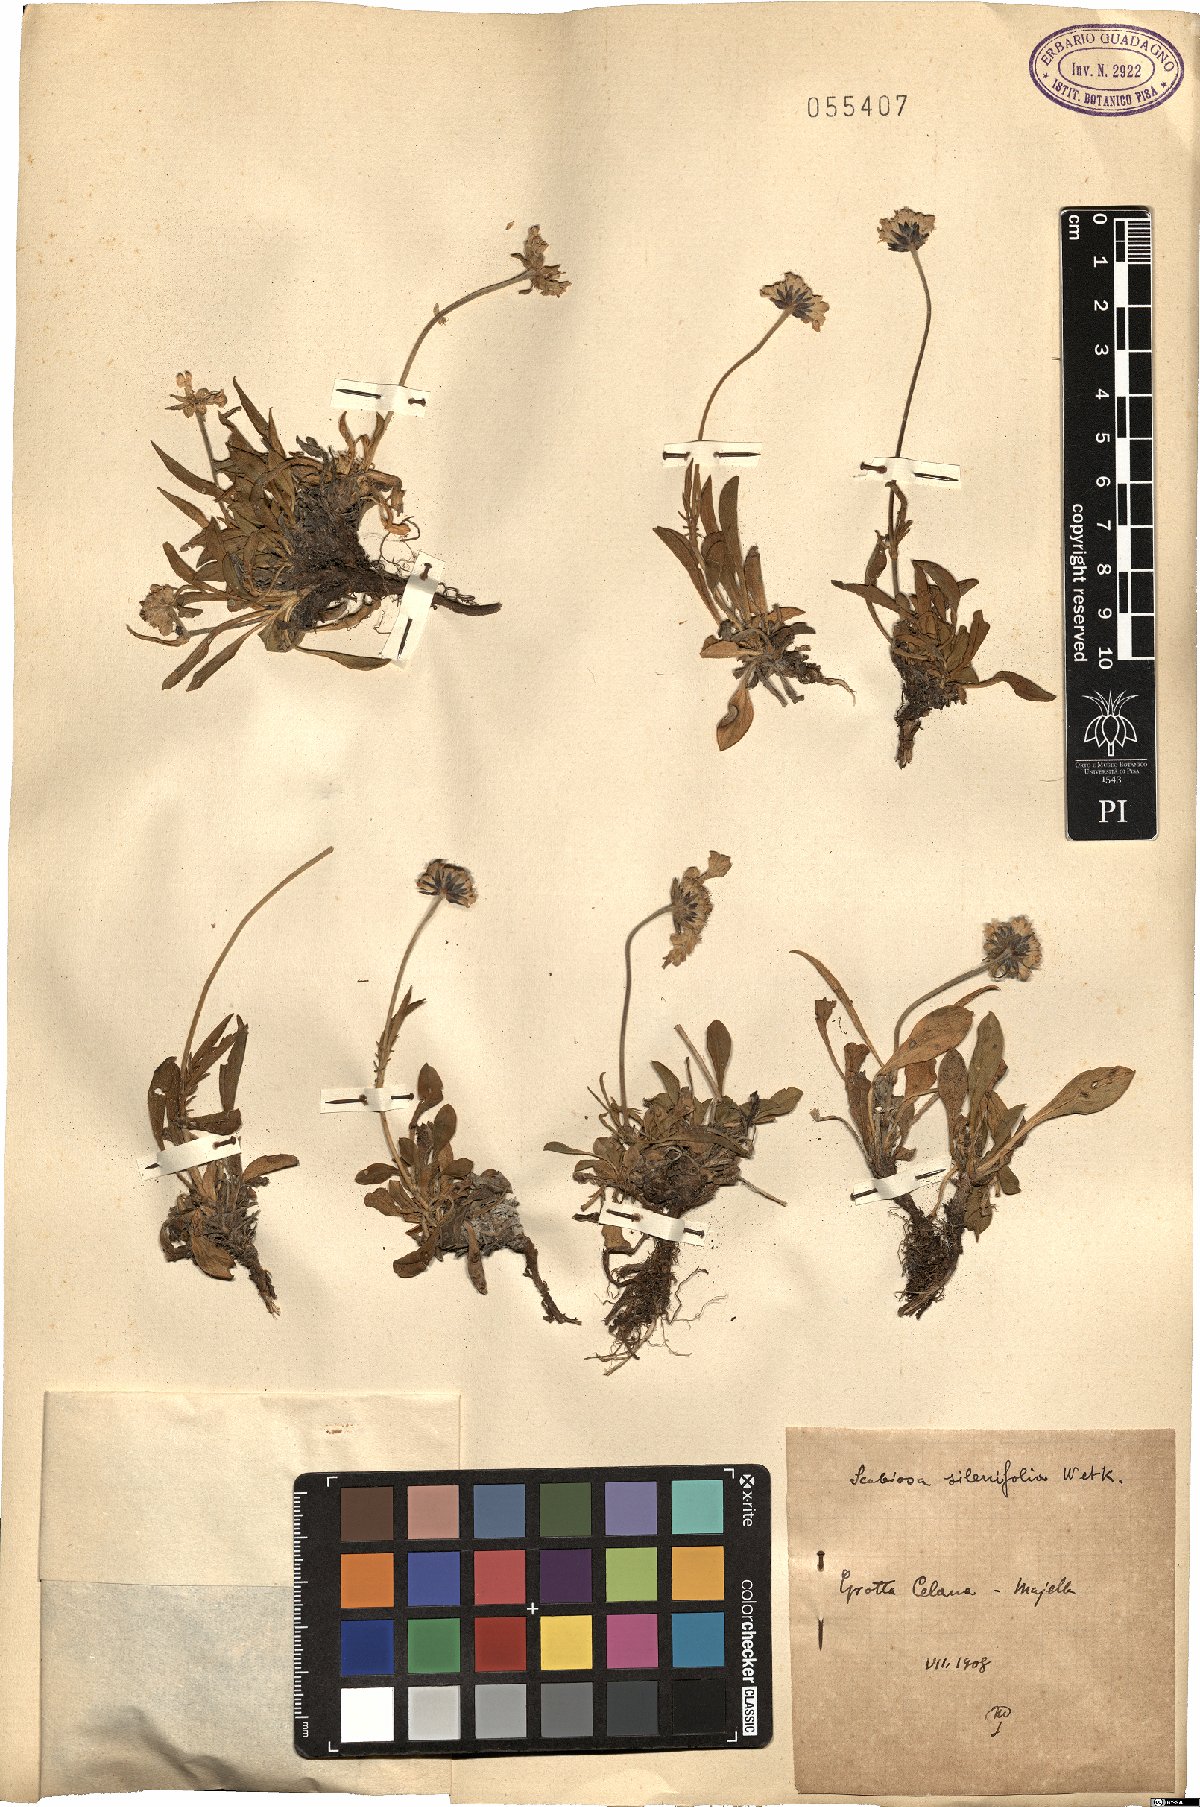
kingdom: Plantae
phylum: Tracheophyta
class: Magnoliopsida
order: Dipsacales
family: Caprifoliaceae
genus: Scabiosa
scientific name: Scabiosa silenifolia
